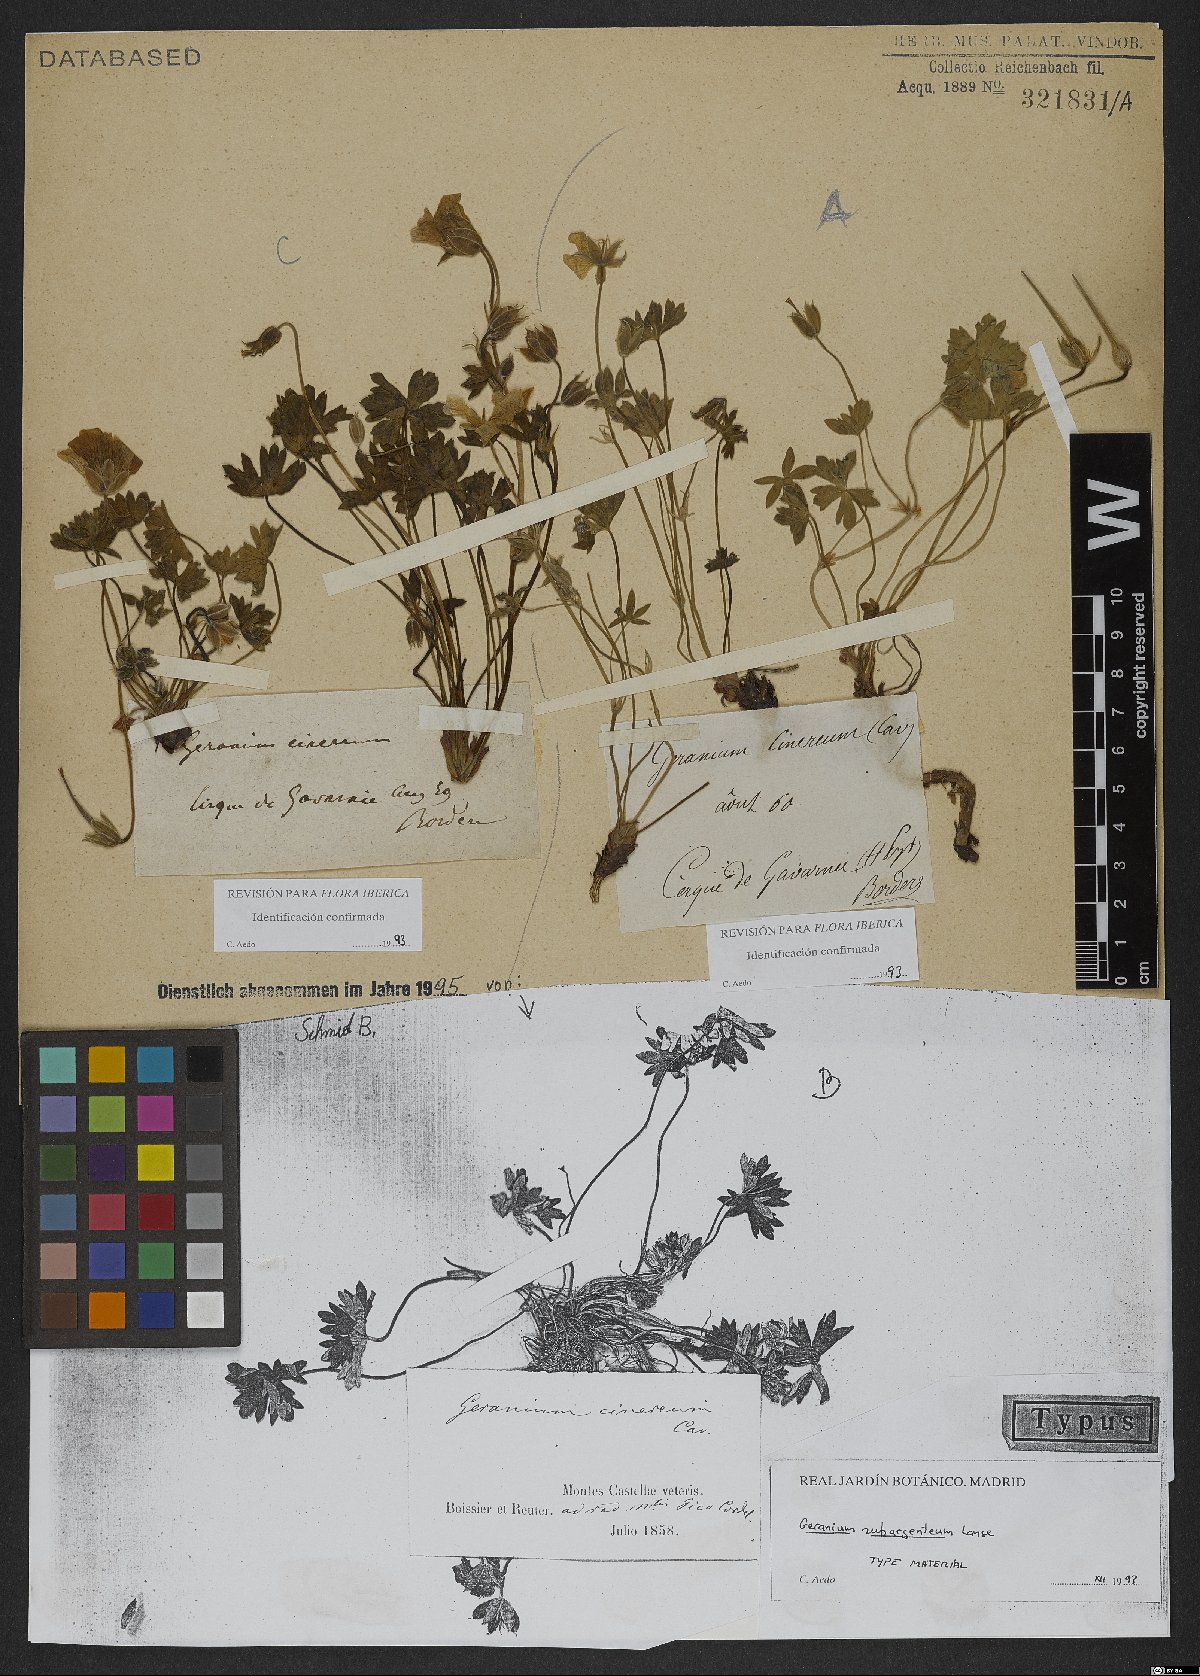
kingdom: Plantae
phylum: Tracheophyta
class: Magnoliopsida
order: Geraniales
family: Geraniaceae
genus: Geranium
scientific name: Geranium cinereum
